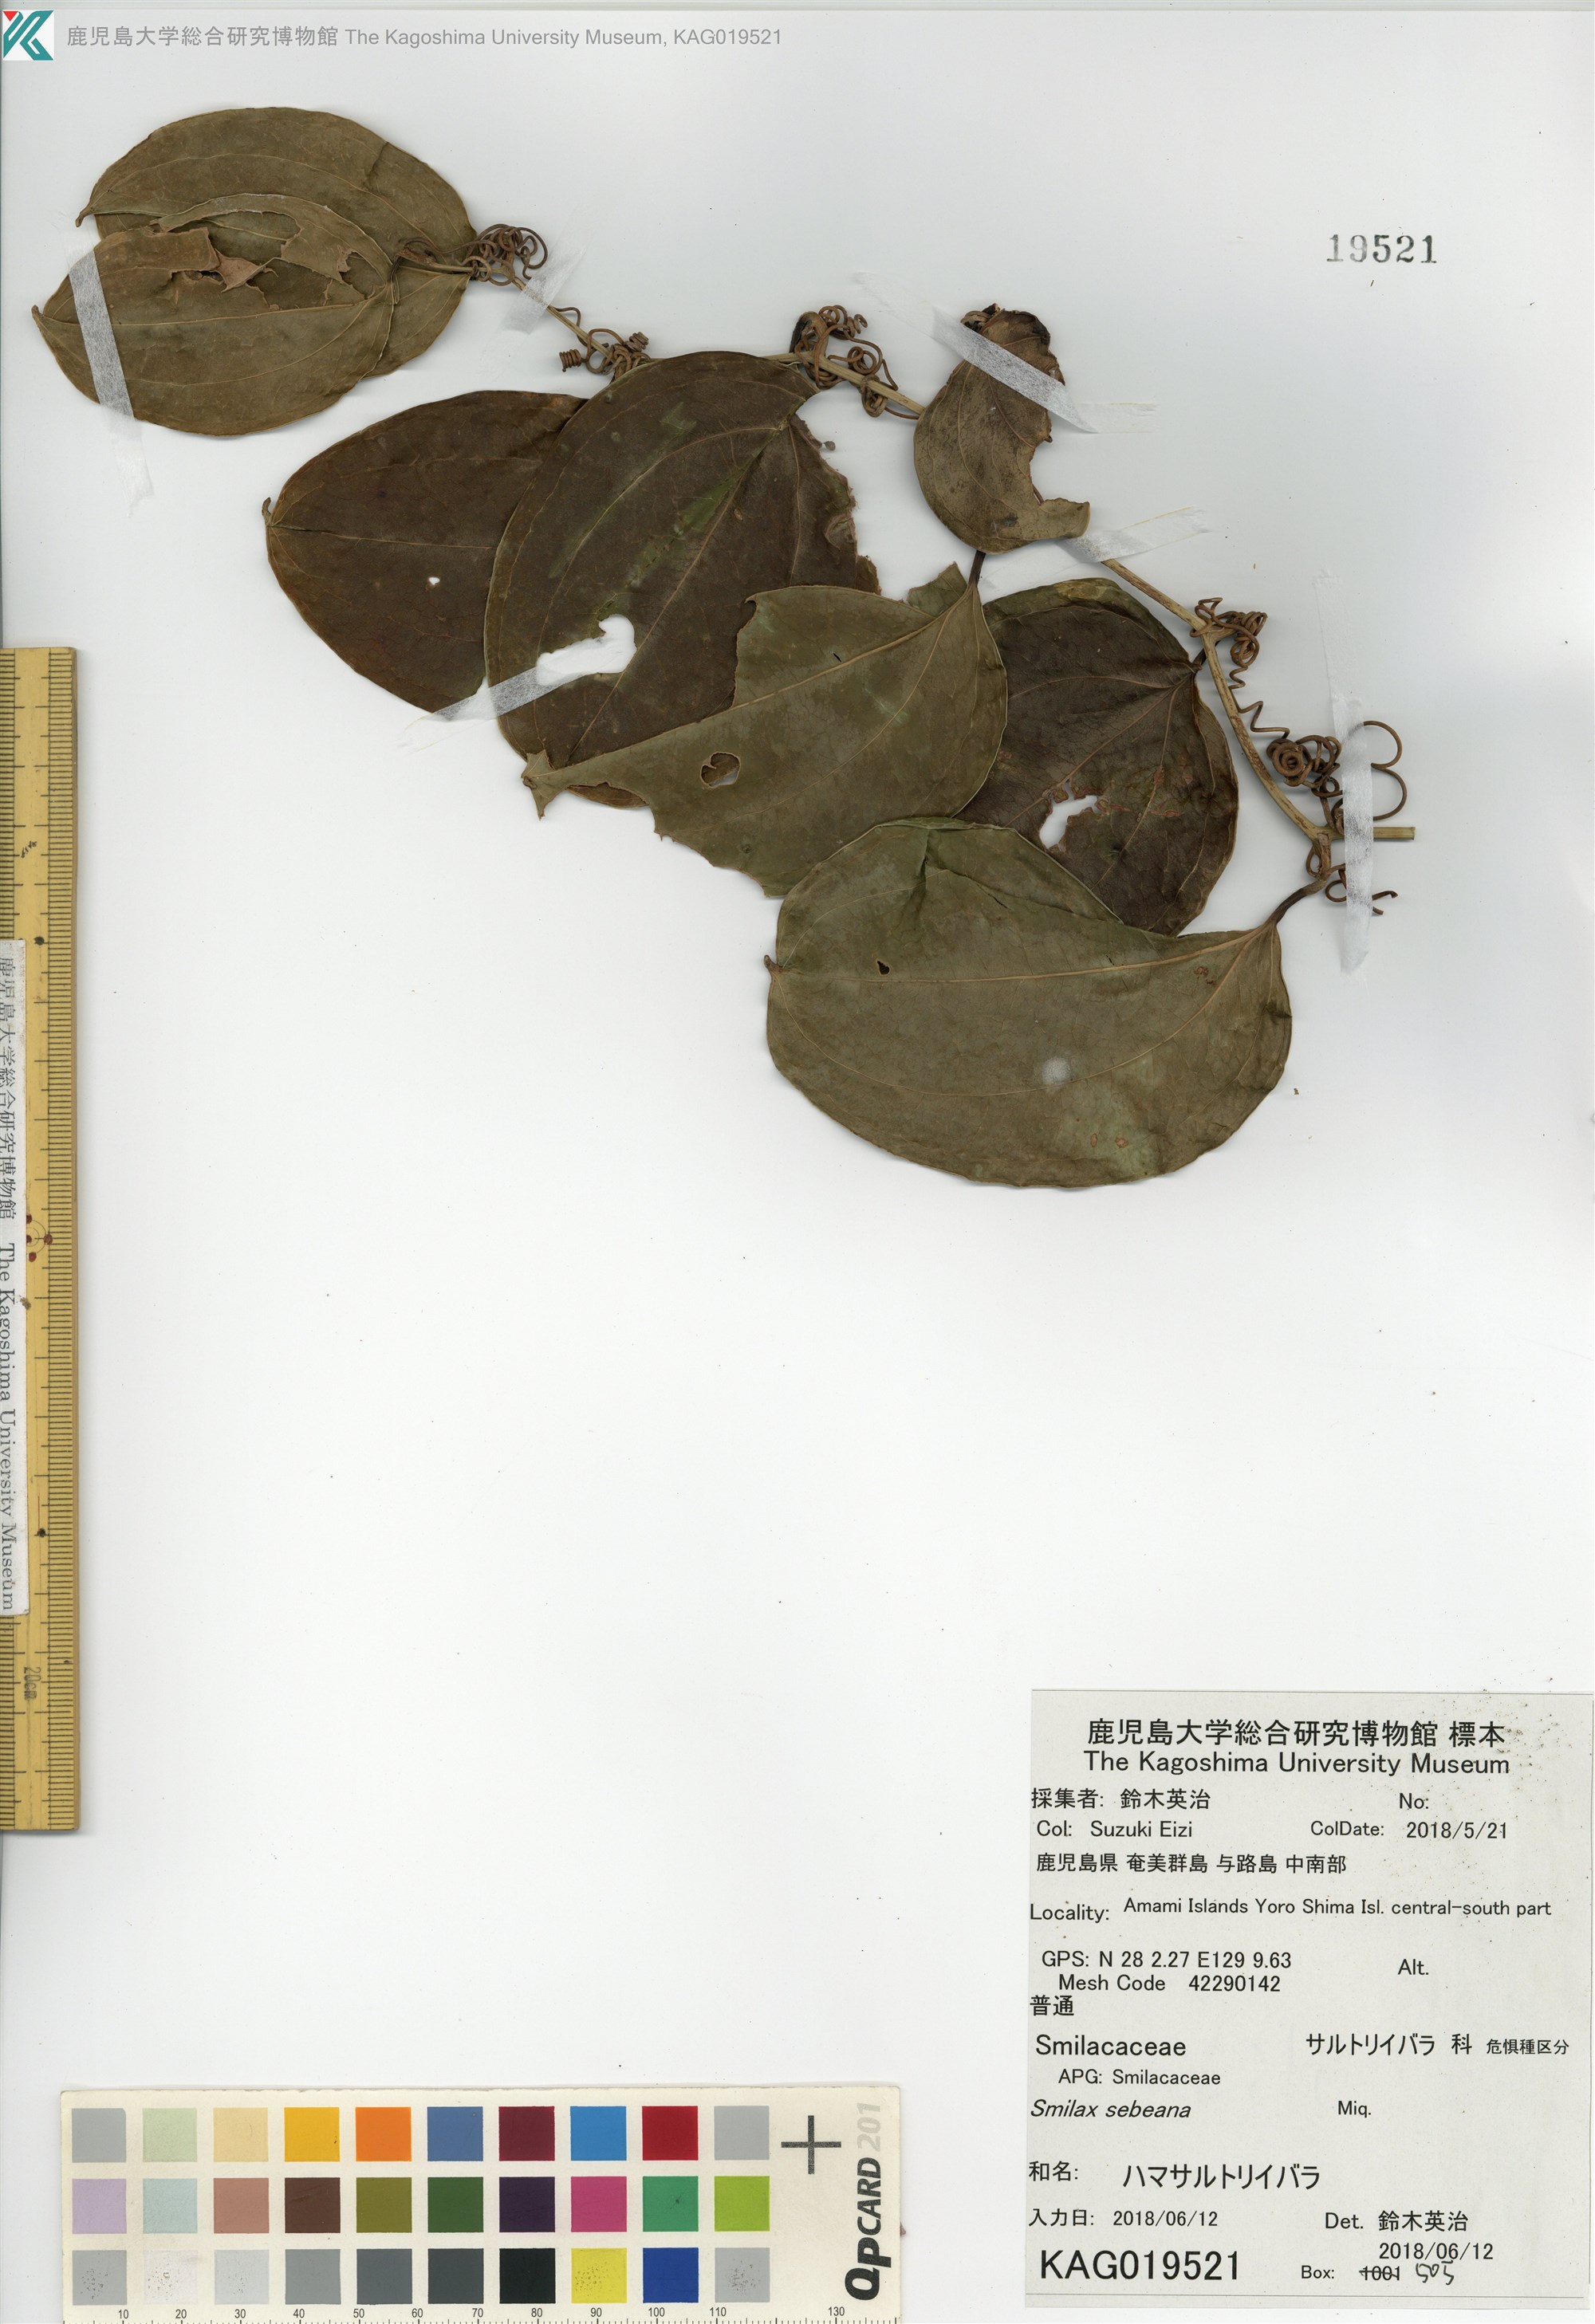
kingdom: Plantae
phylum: Tracheophyta
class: Liliopsida
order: Liliales
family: Smilacaceae
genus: Smilax
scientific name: Smilax sebeana
